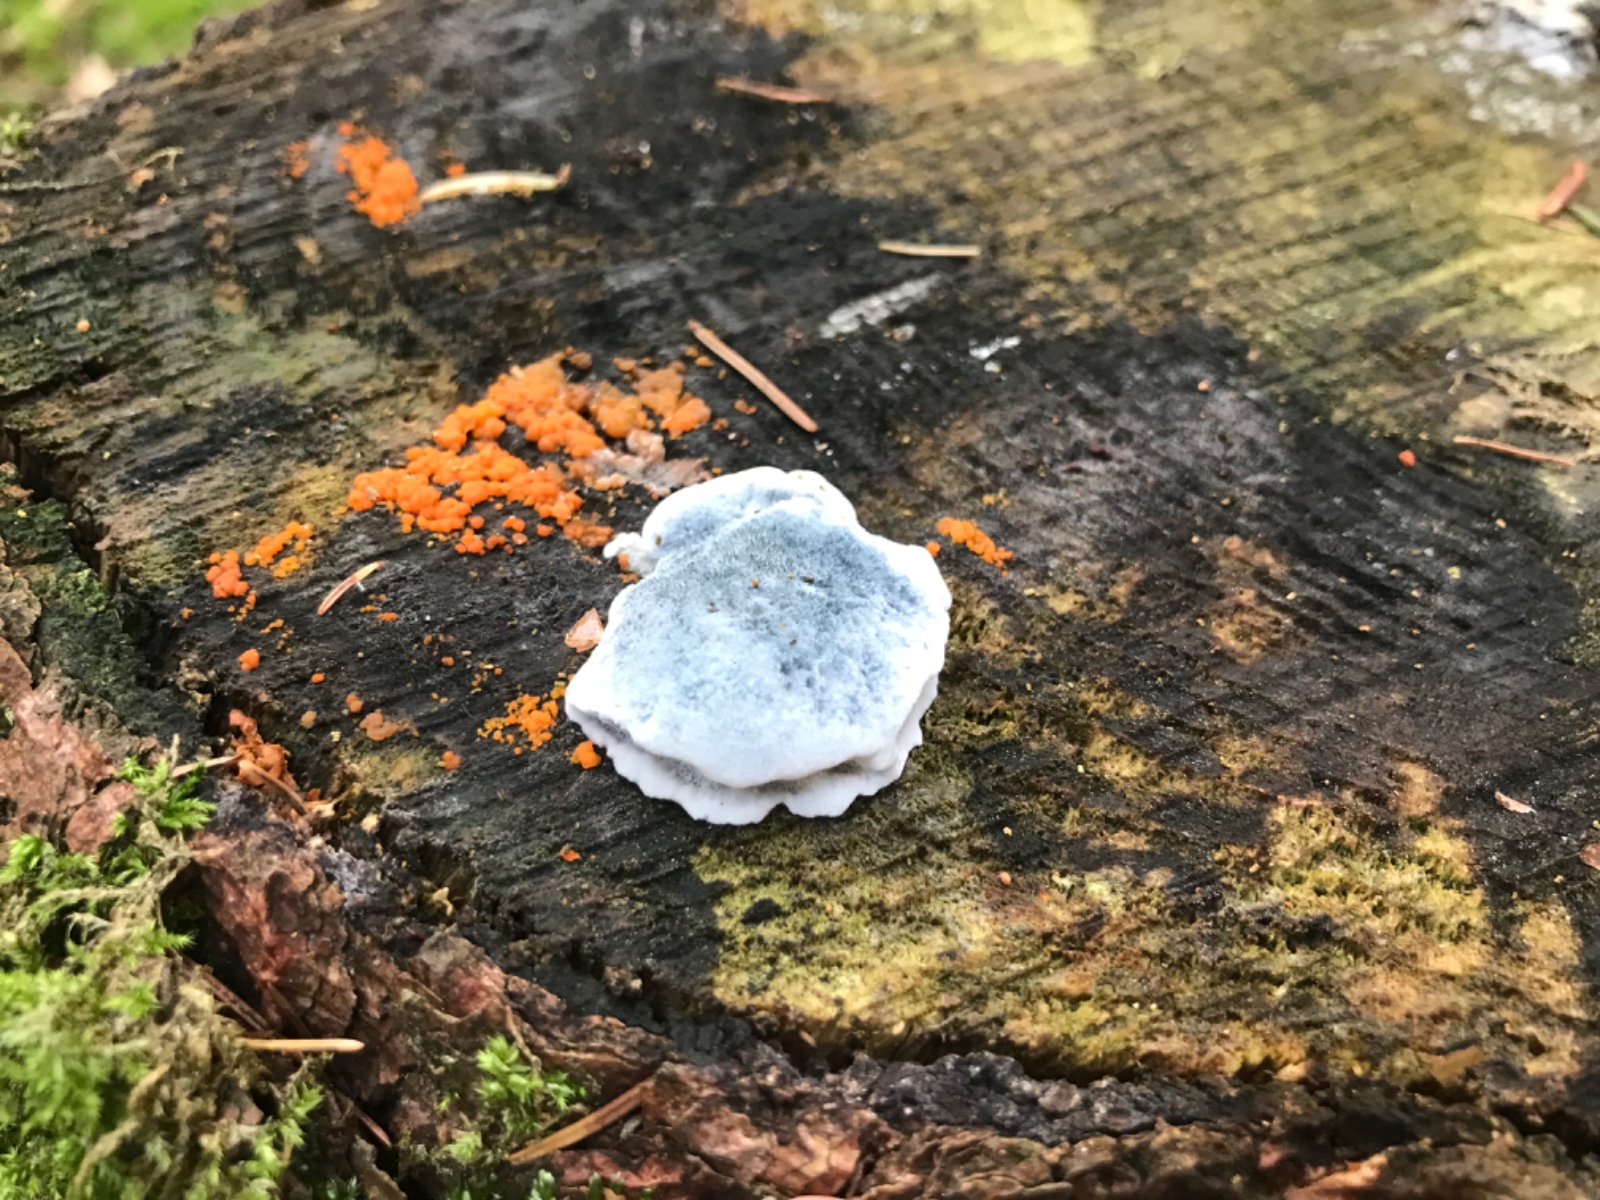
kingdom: Fungi
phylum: Basidiomycota
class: Agaricomycetes
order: Polyporales
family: Polyporaceae
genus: Cyanosporus
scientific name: Cyanosporus caesius
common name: blålig kødporesvamp
